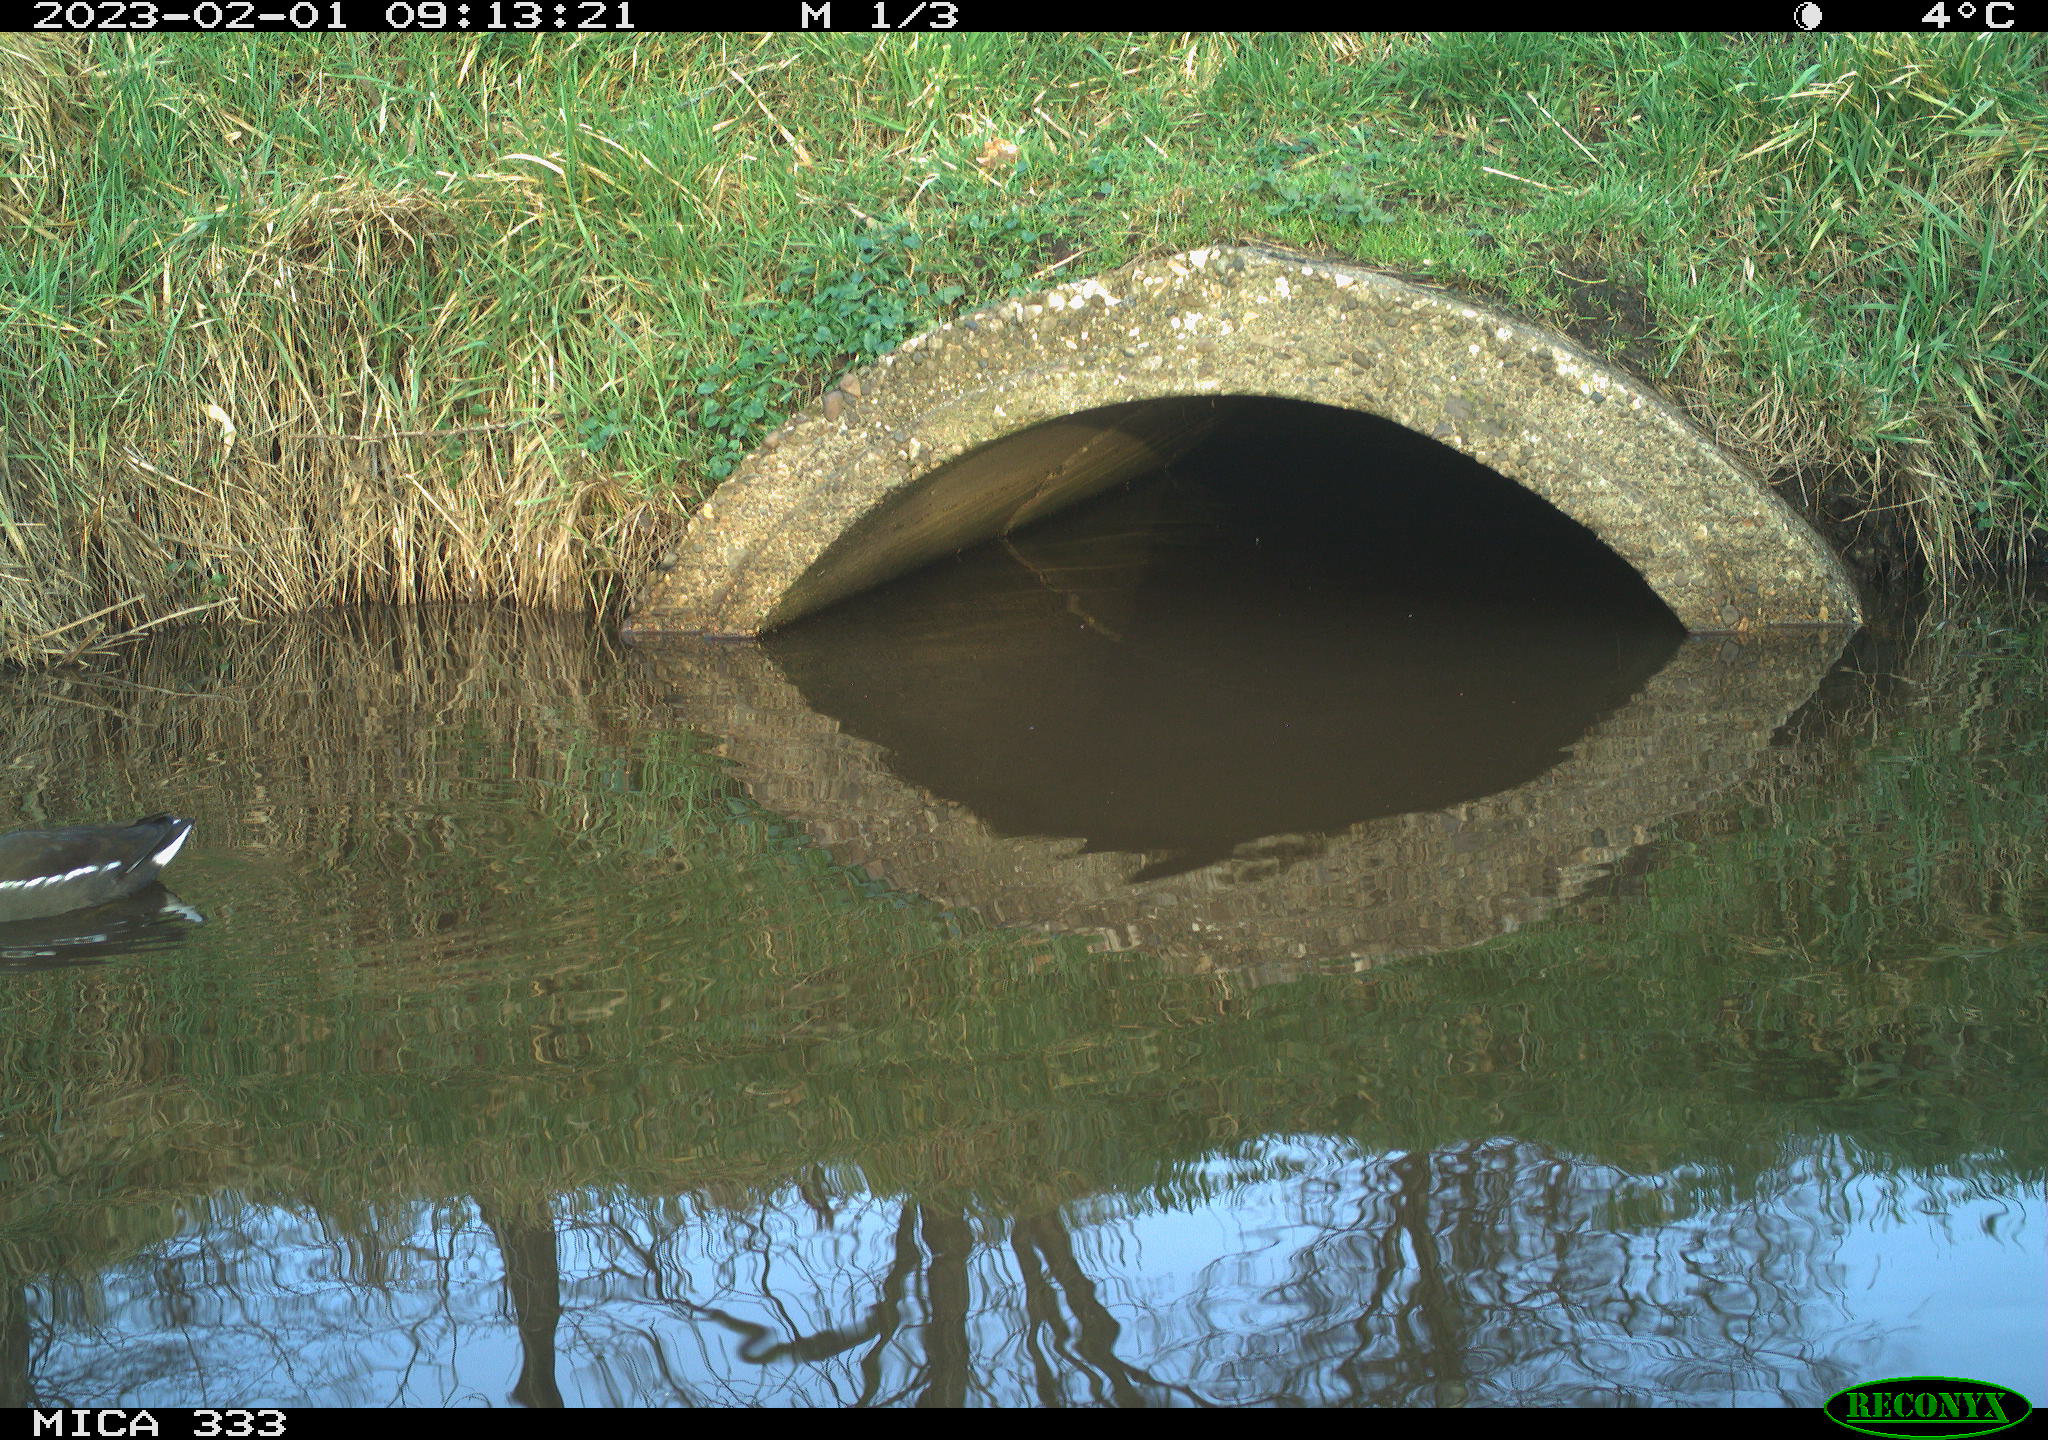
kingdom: Animalia
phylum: Chordata
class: Aves
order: Gruiformes
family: Rallidae
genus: Gallinula
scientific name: Gallinula chloropus
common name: Common moorhen
